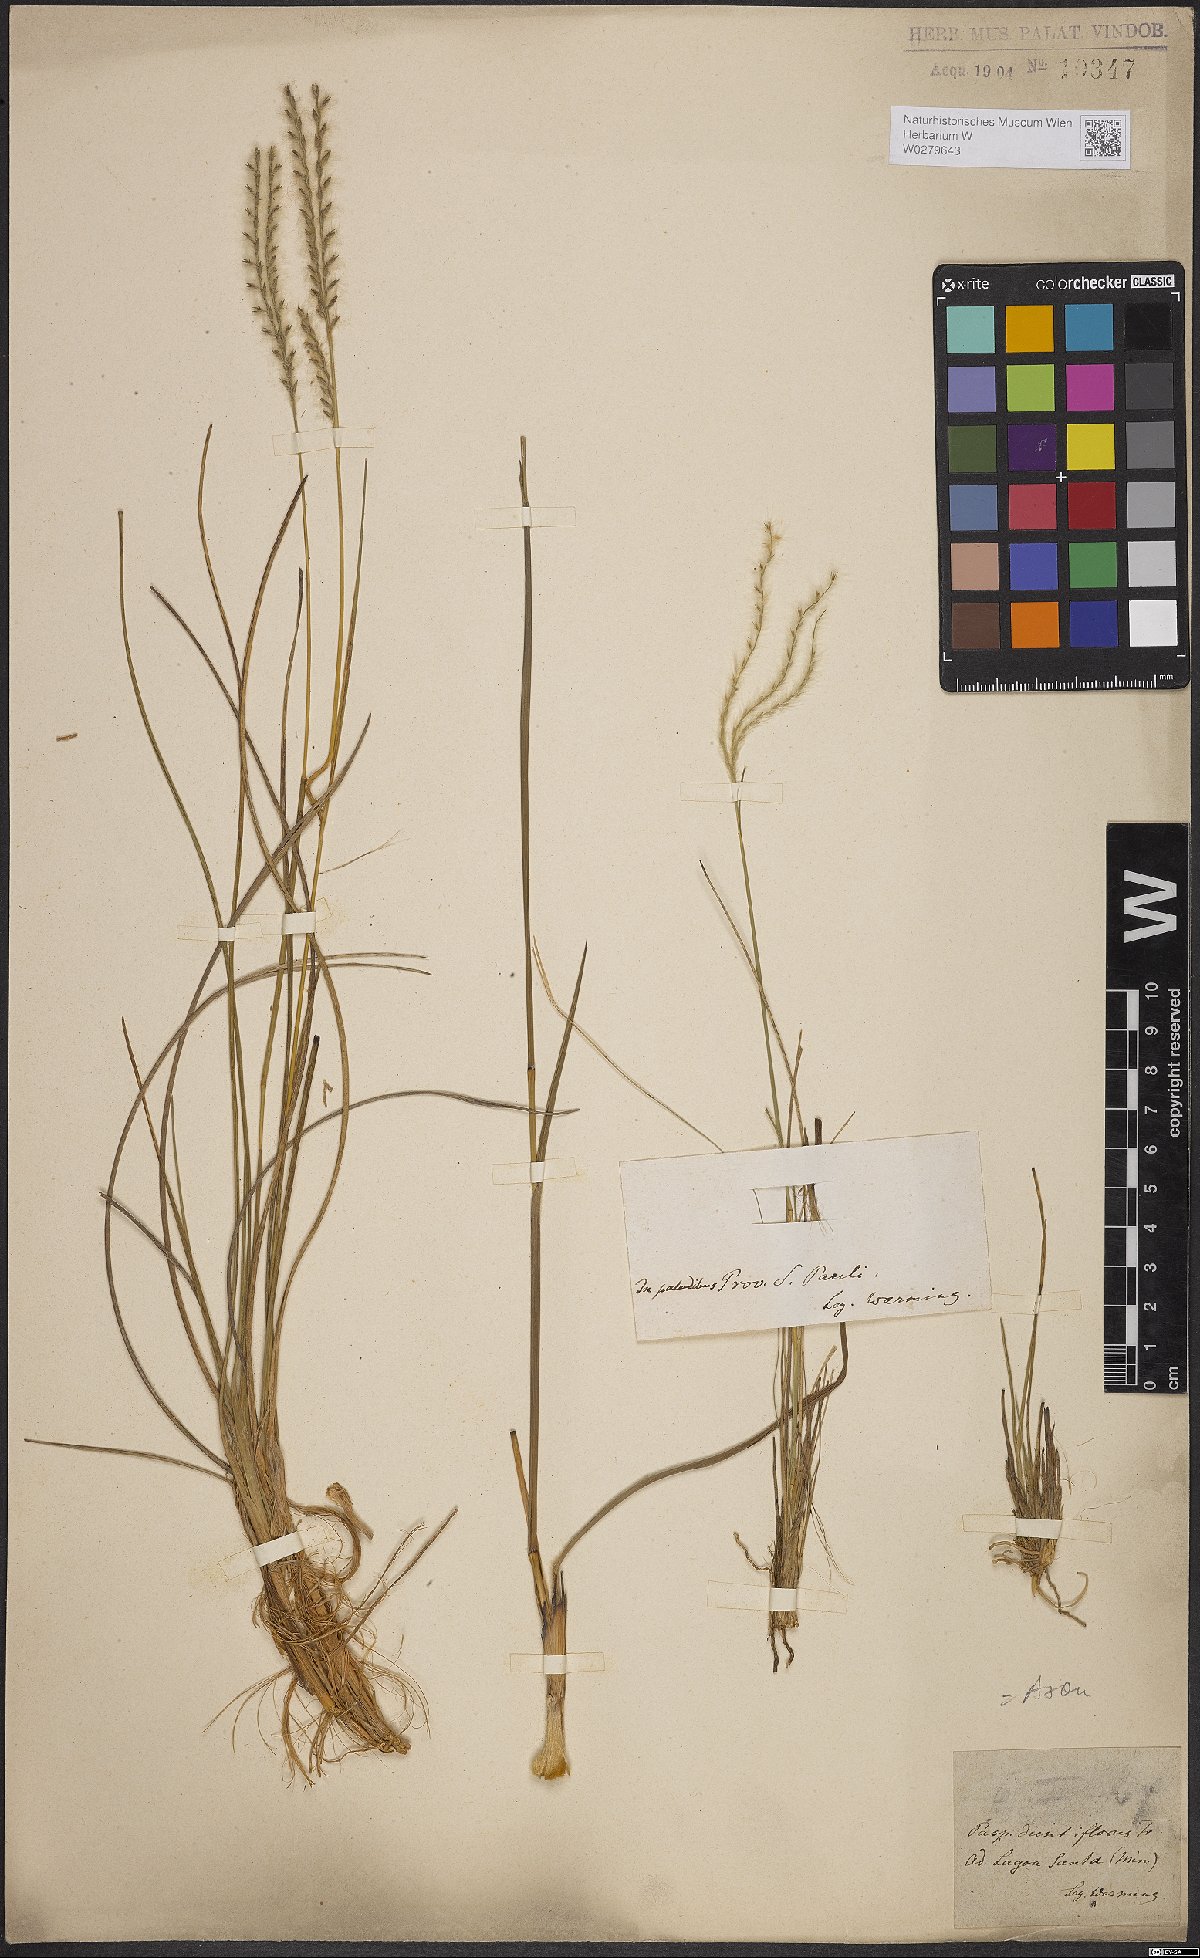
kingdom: Plantae
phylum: Tracheophyta
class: Liliopsida
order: Poales
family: Poaceae
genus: Axonopus
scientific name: Axonopus brasiliensis
